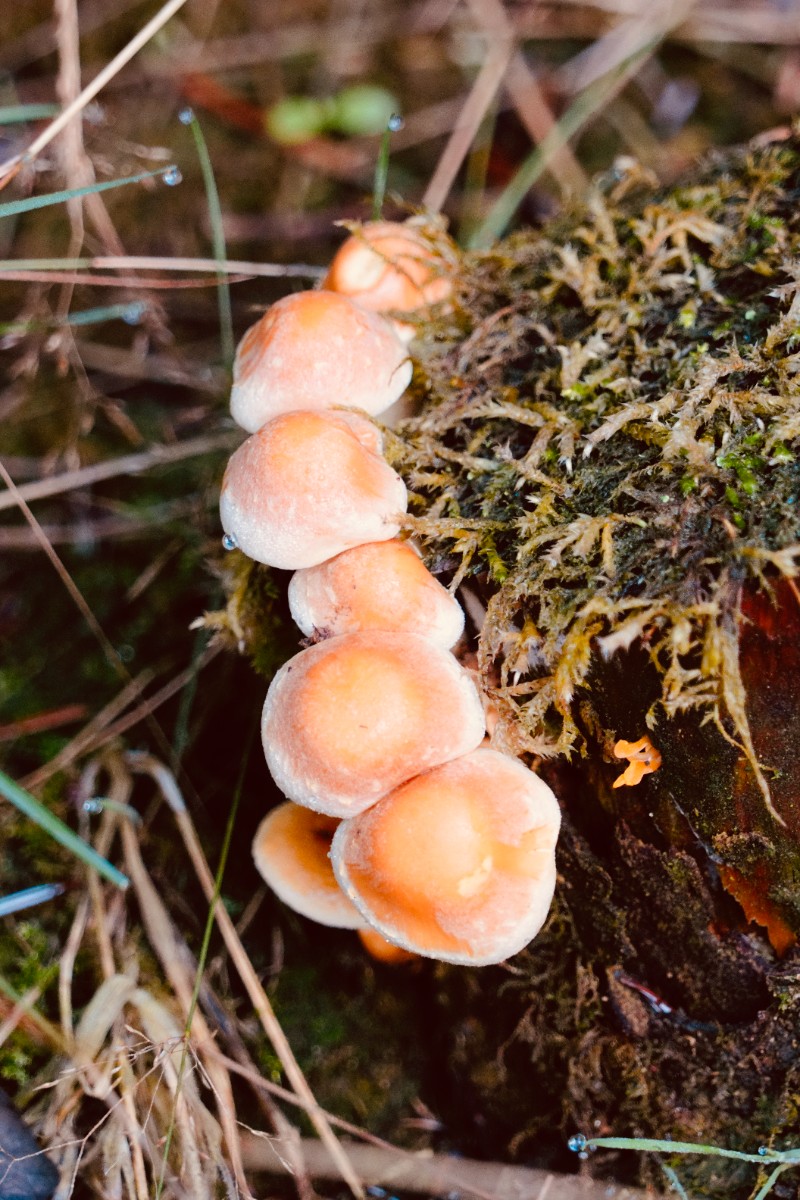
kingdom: Fungi
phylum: Basidiomycota
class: Agaricomycetes
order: Agaricales
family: Strophariaceae
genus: Hypholoma
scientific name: Hypholoma fasciculare
